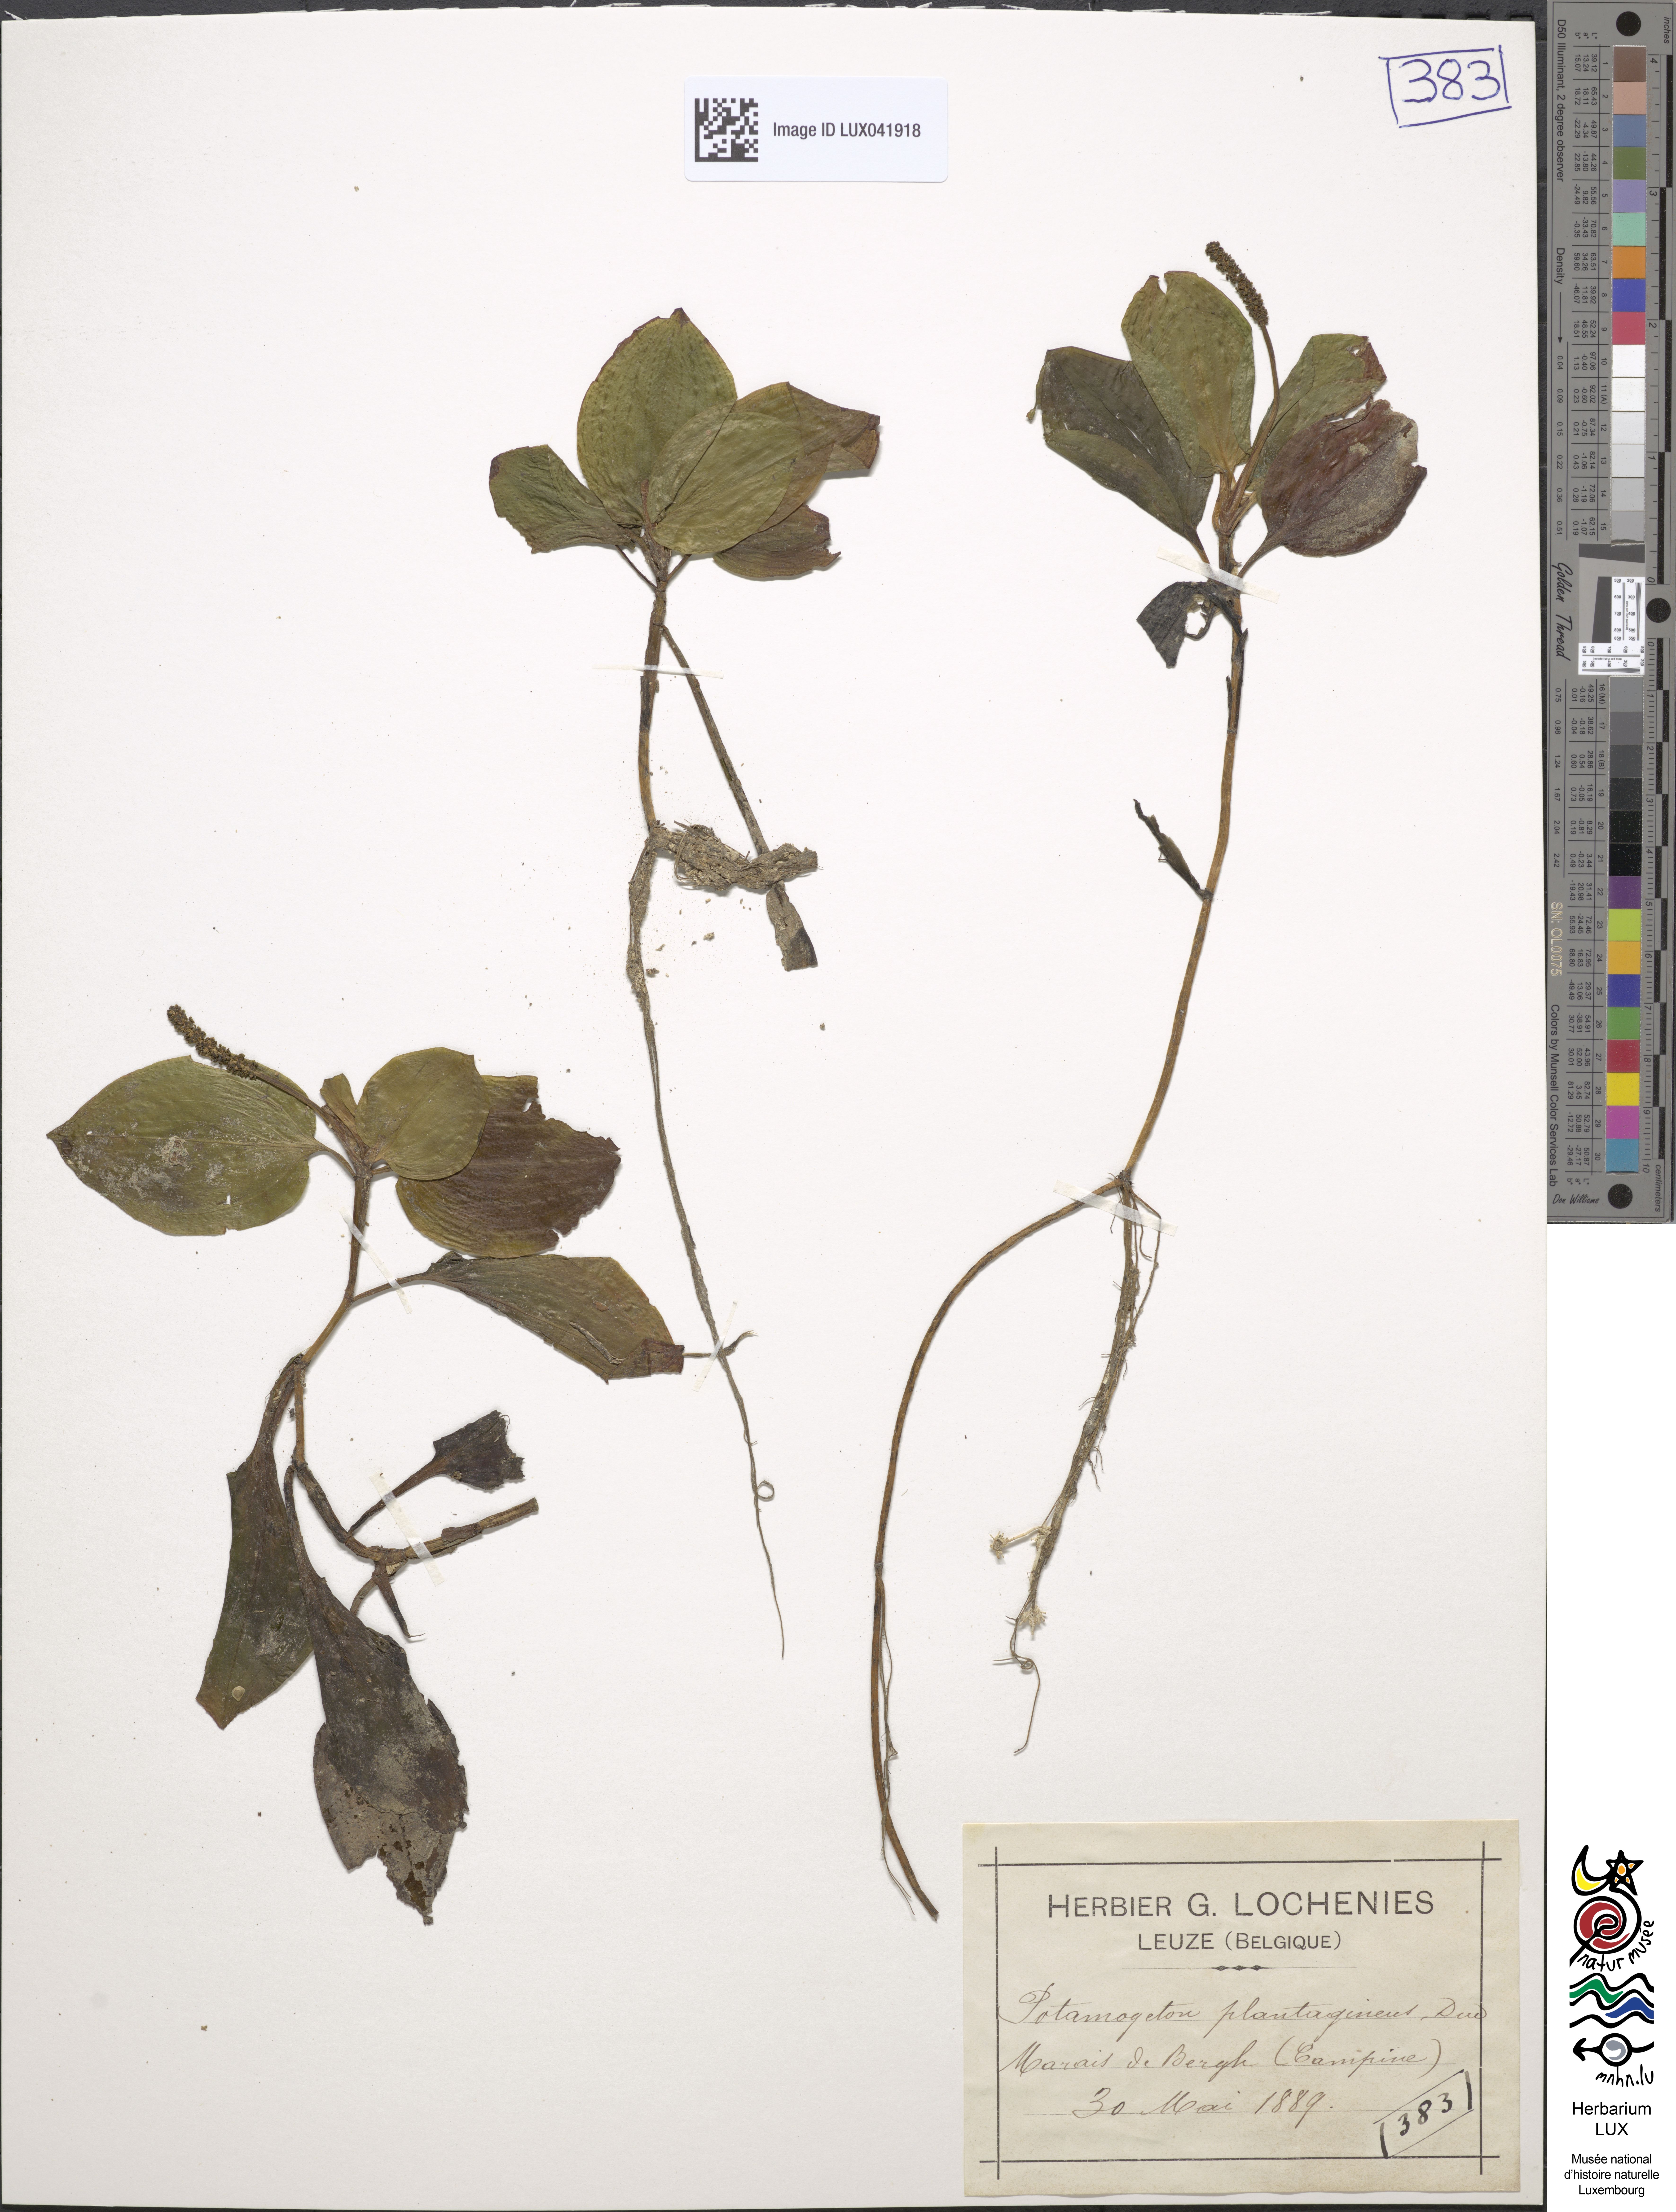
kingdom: Plantae
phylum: Tracheophyta
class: Liliopsida
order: Alismatales
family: Potamogetonaceae
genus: Potamogeton
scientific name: Potamogeton coloratus
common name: Fen pondweed
